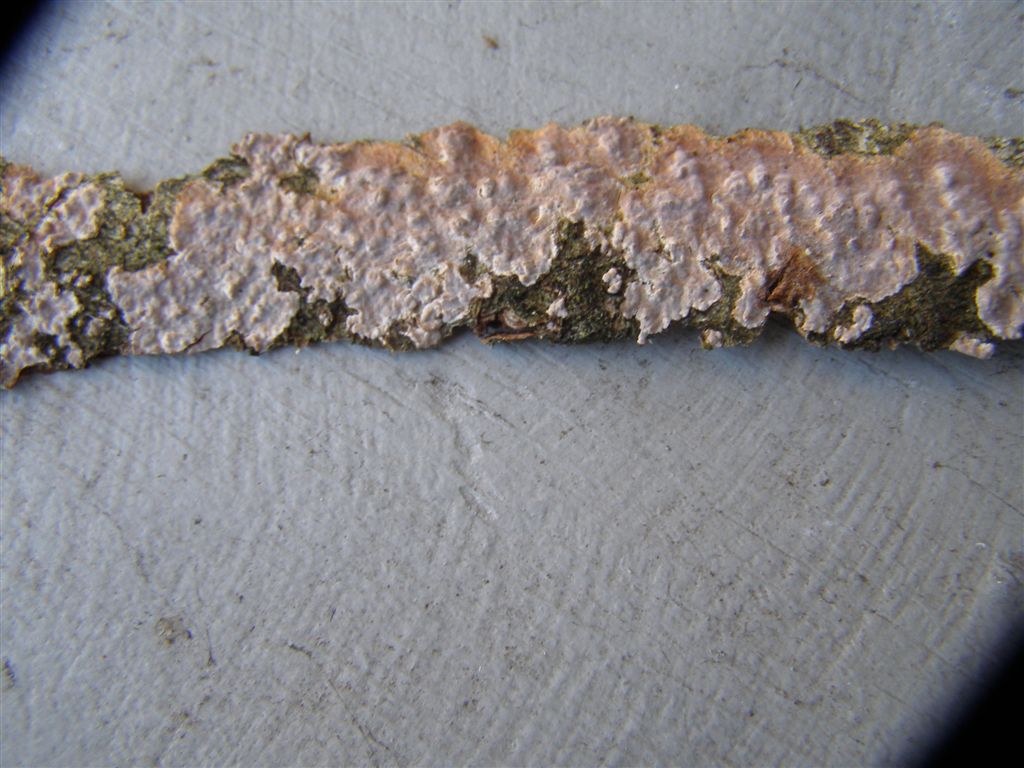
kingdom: Fungi
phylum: Basidiomycota
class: Agaricomycetes
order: Russulales
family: Peniophoraceae
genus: Peniophora
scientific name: Peniophora polygonia
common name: polygon-voksskind
